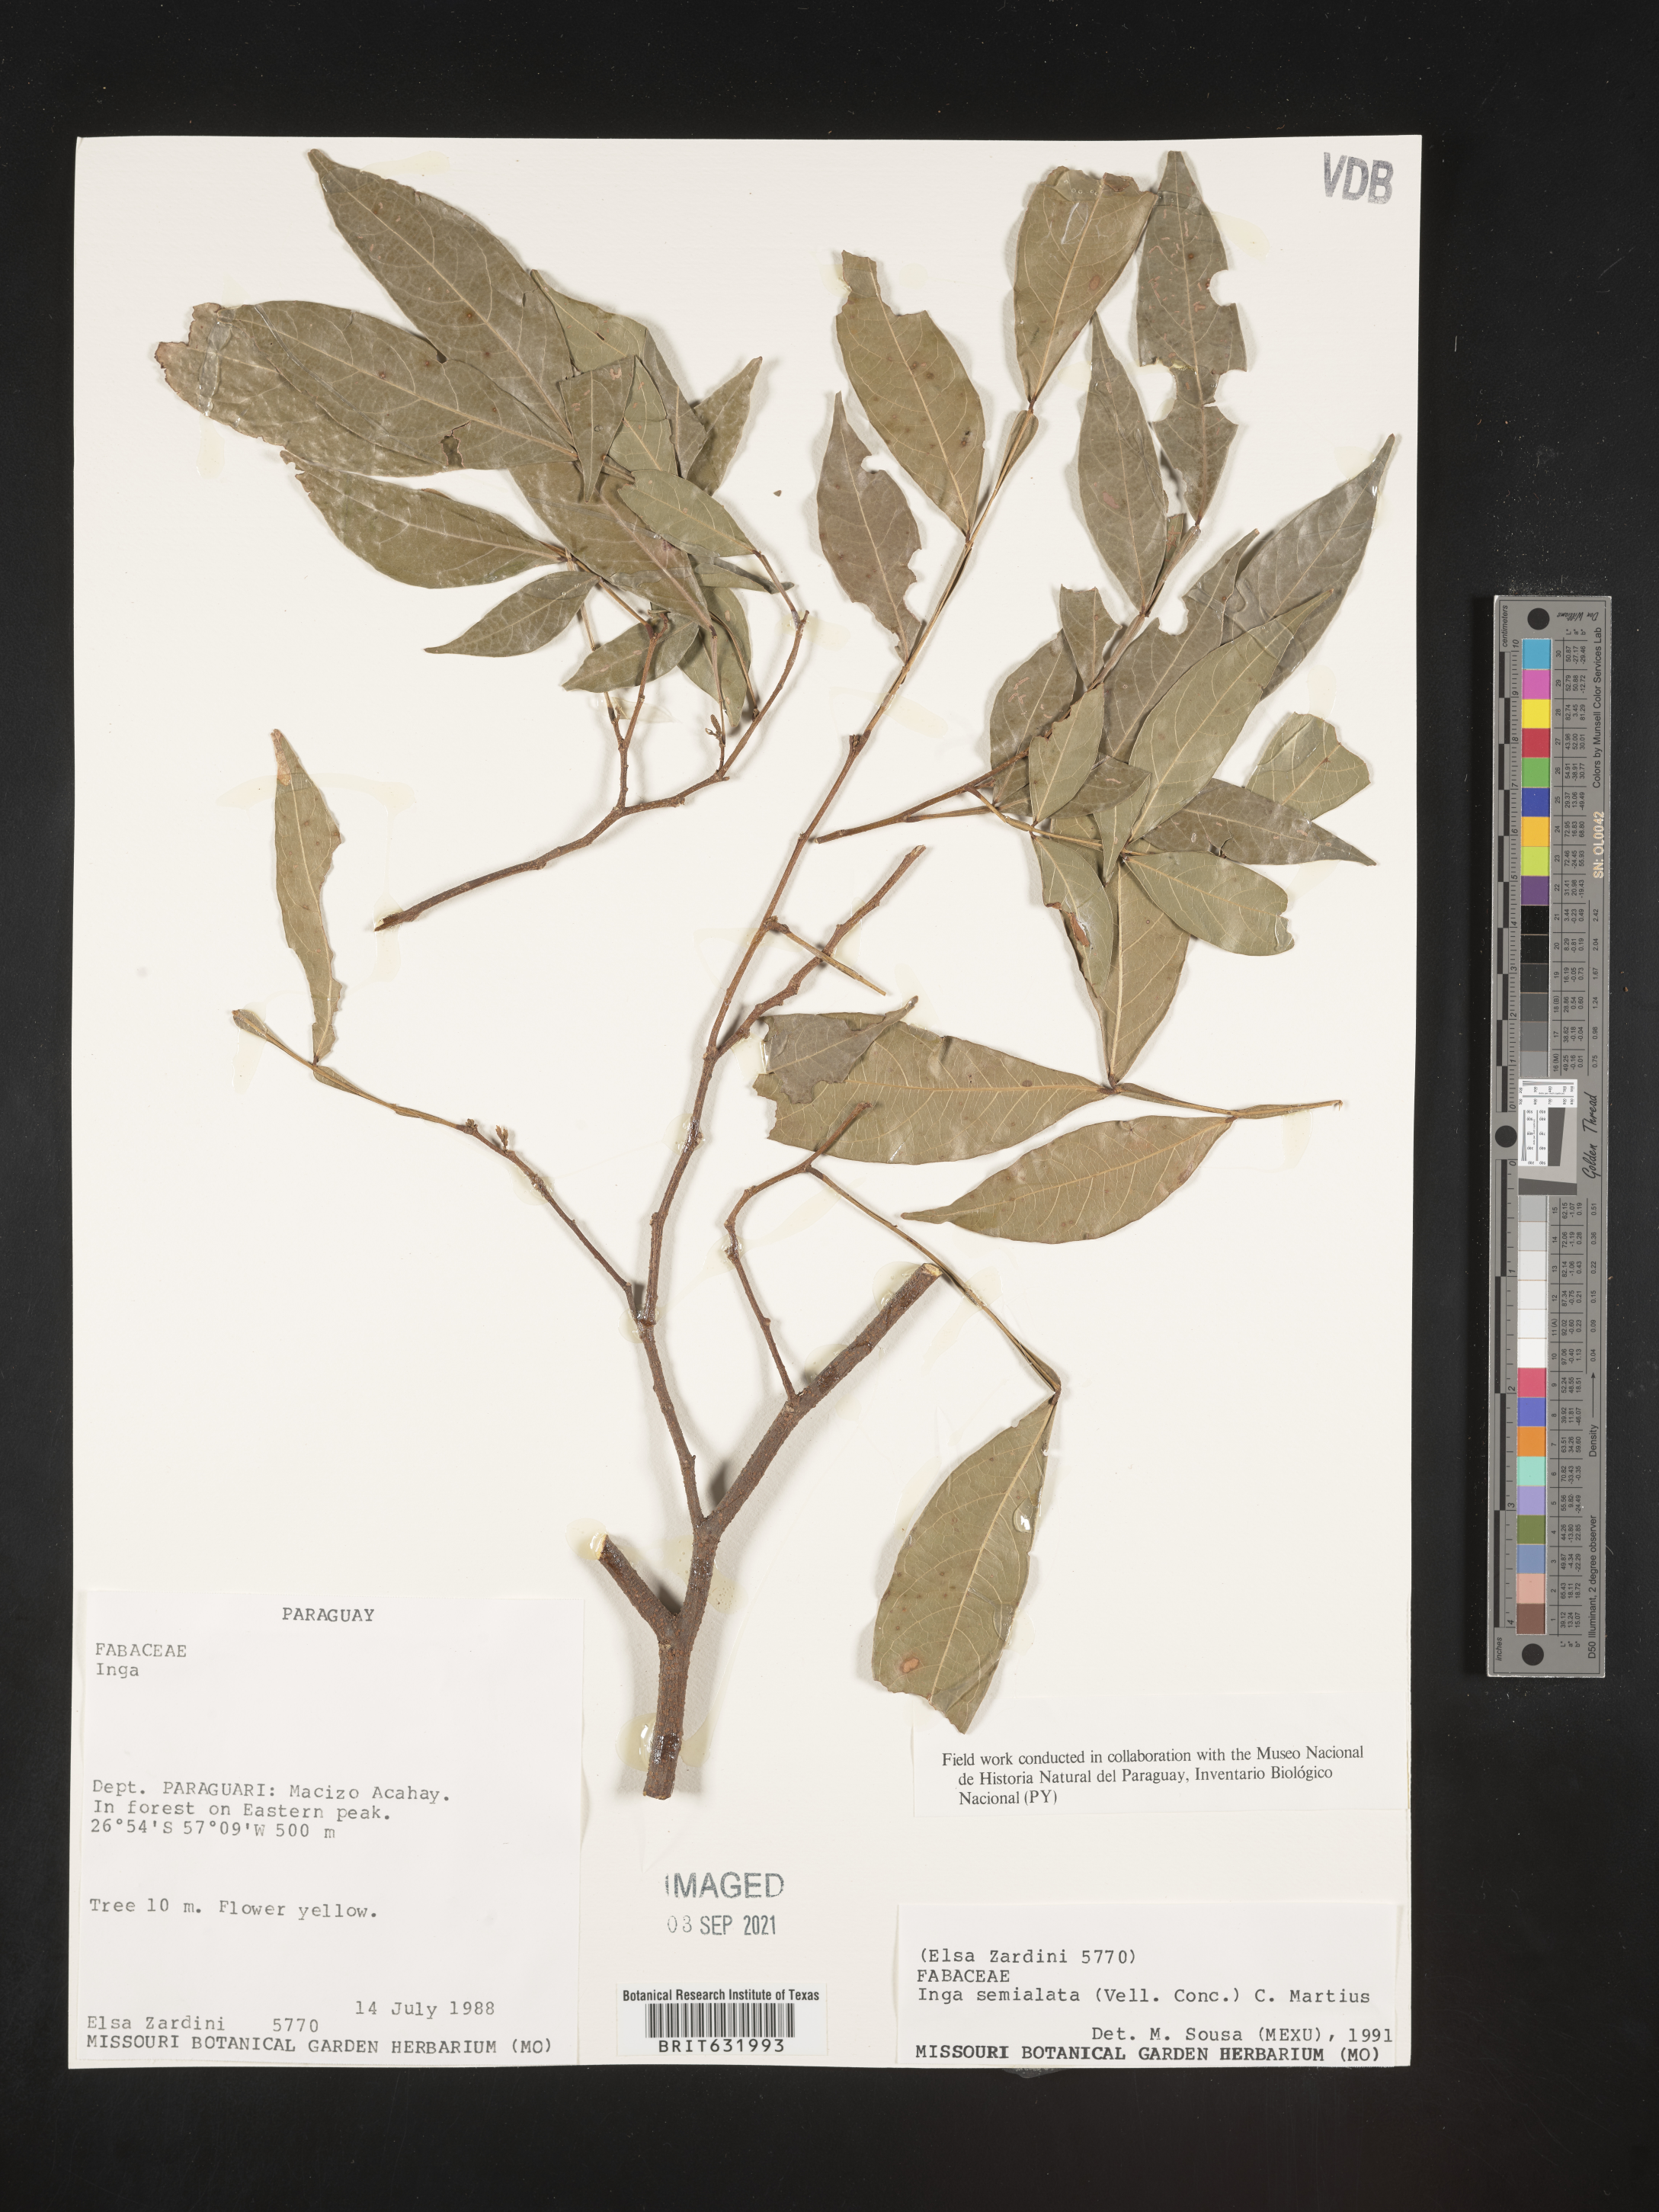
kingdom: Plantae
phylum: Tracheophyta
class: Magnoliopsida
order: Fabales
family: Fabaceae
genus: Inga
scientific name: Inga
